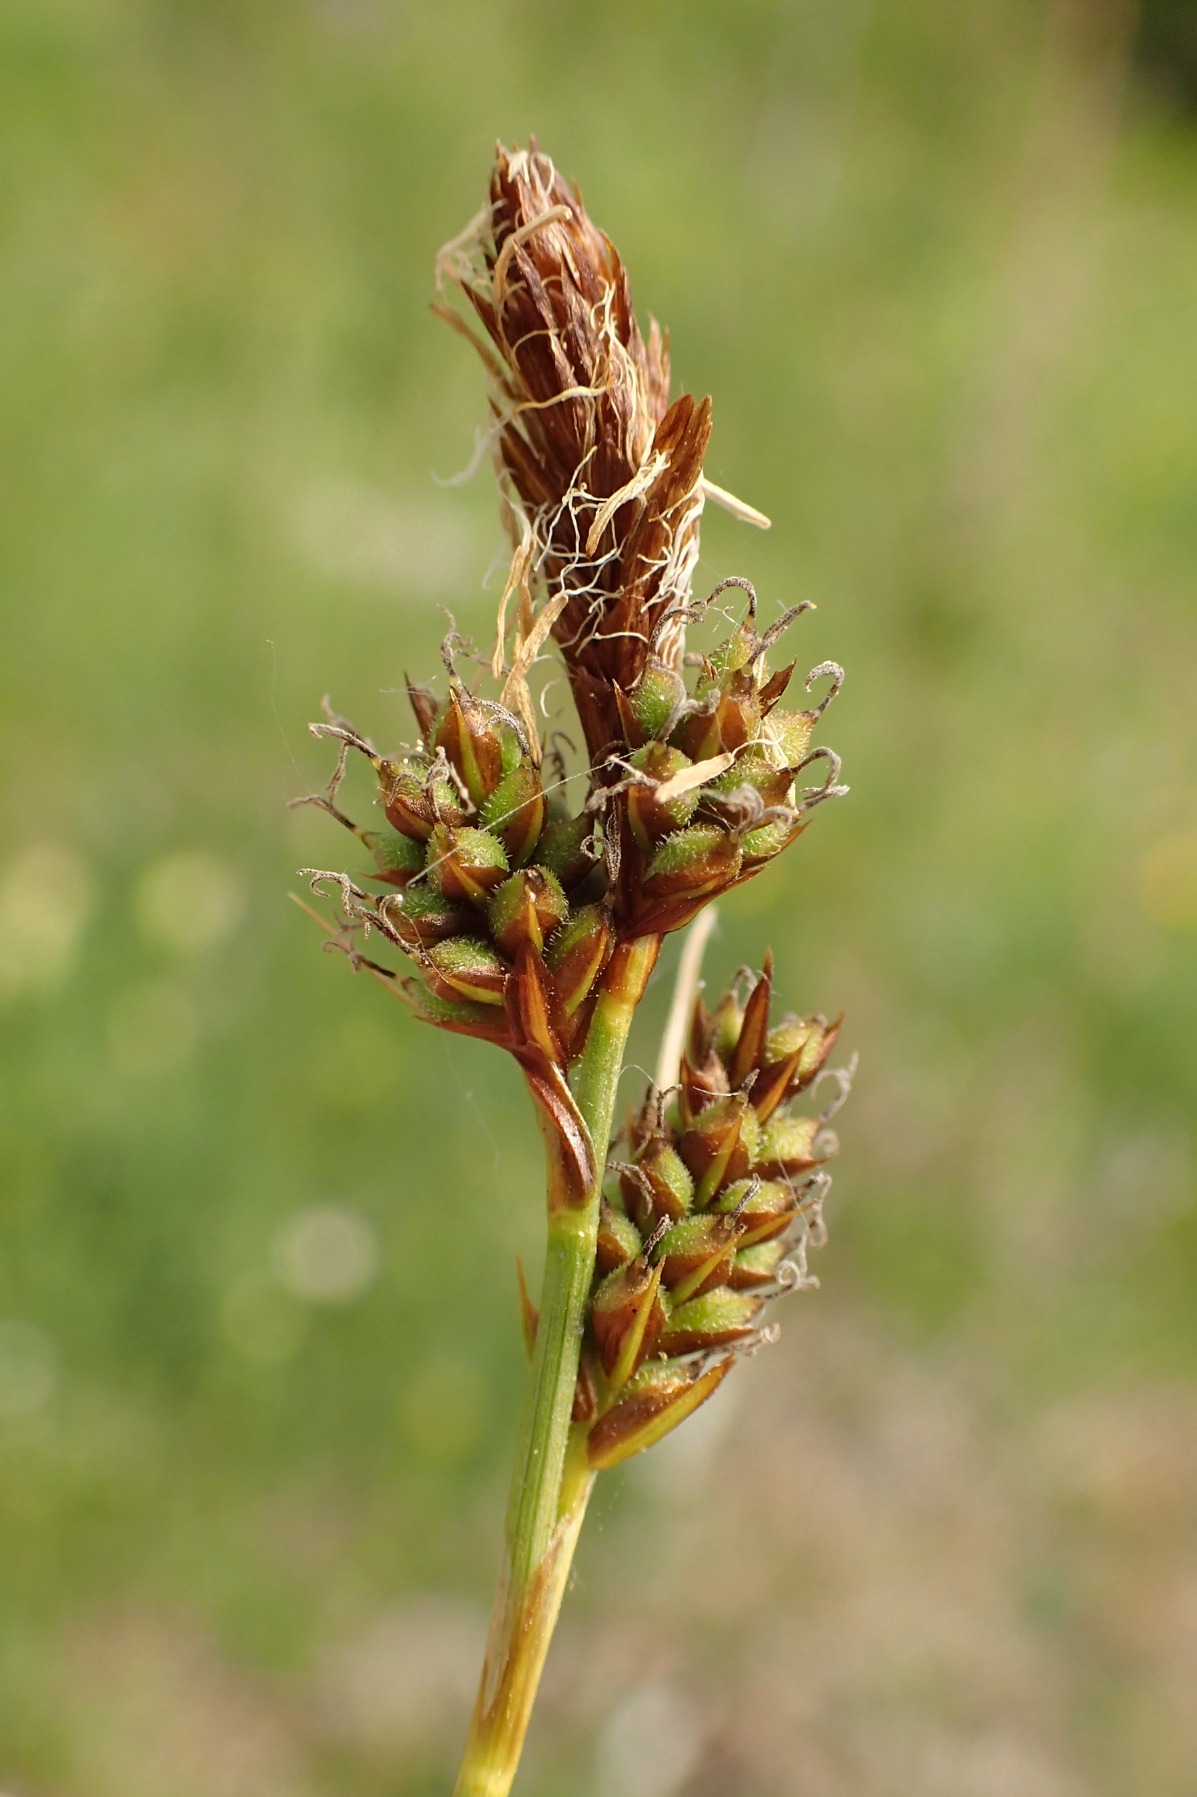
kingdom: Plantae
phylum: Tracheophyta
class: Liliopsida
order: Poales
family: Cyperaceae
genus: Carex
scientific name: Carex caryophyllea
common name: Vår-star
